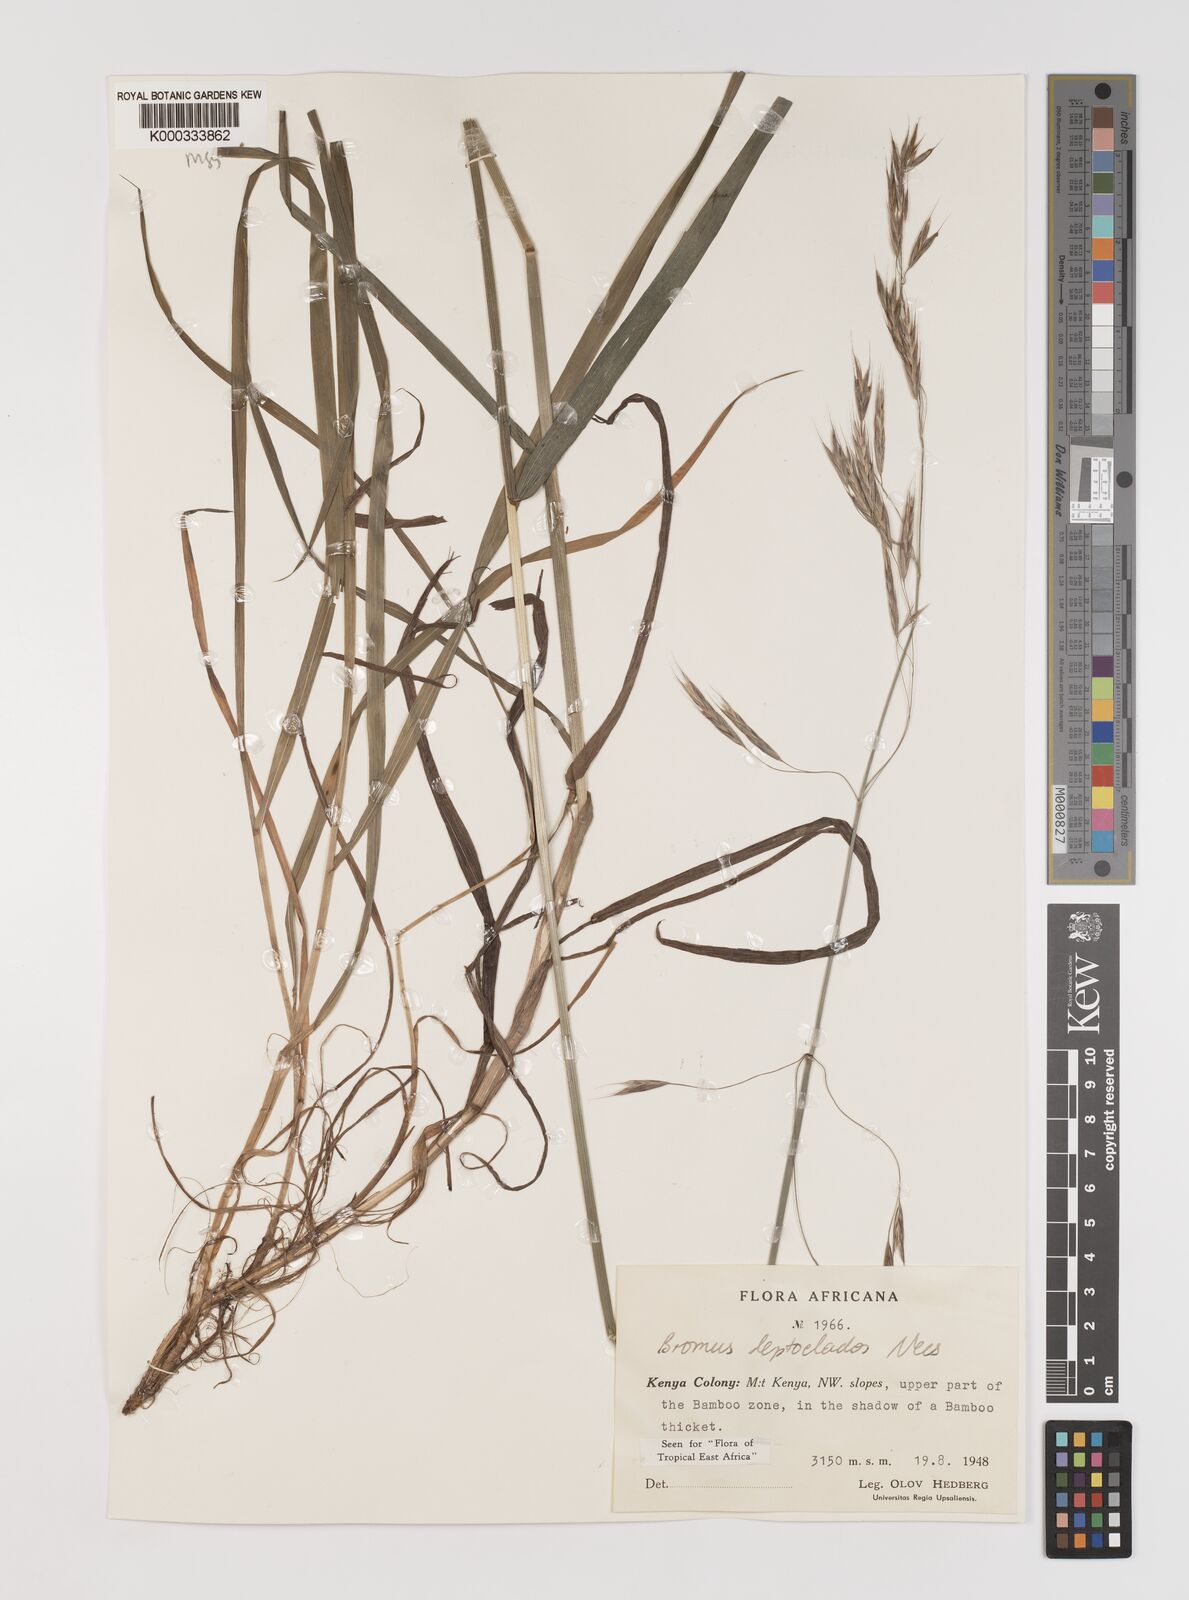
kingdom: Plantae
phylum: Tracheophyta
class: Liliopsida
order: Poales
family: Poaceae
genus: Bromus
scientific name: Bromus leptoclados
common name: Mountain bromegrass
